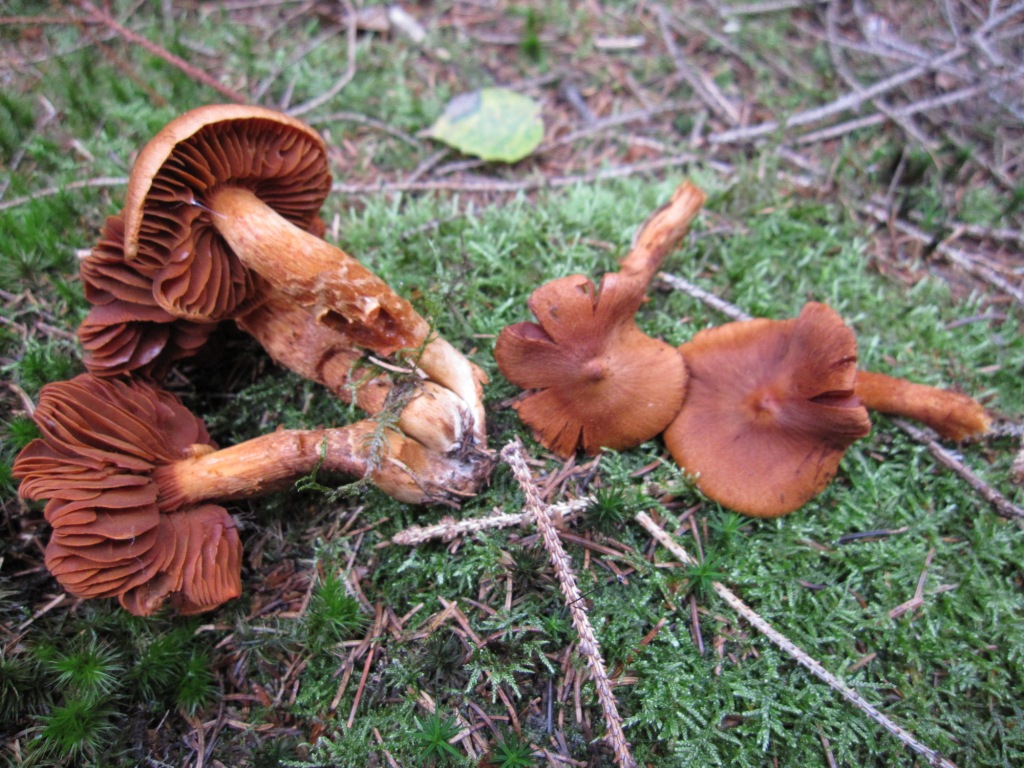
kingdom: Fungi
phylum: Basidiomycota
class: Agaricomycetes
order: Agaricales
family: Cortinariaceae
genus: Cortinarius
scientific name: Cortinarius rubellus
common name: puklet gift-slørhat
